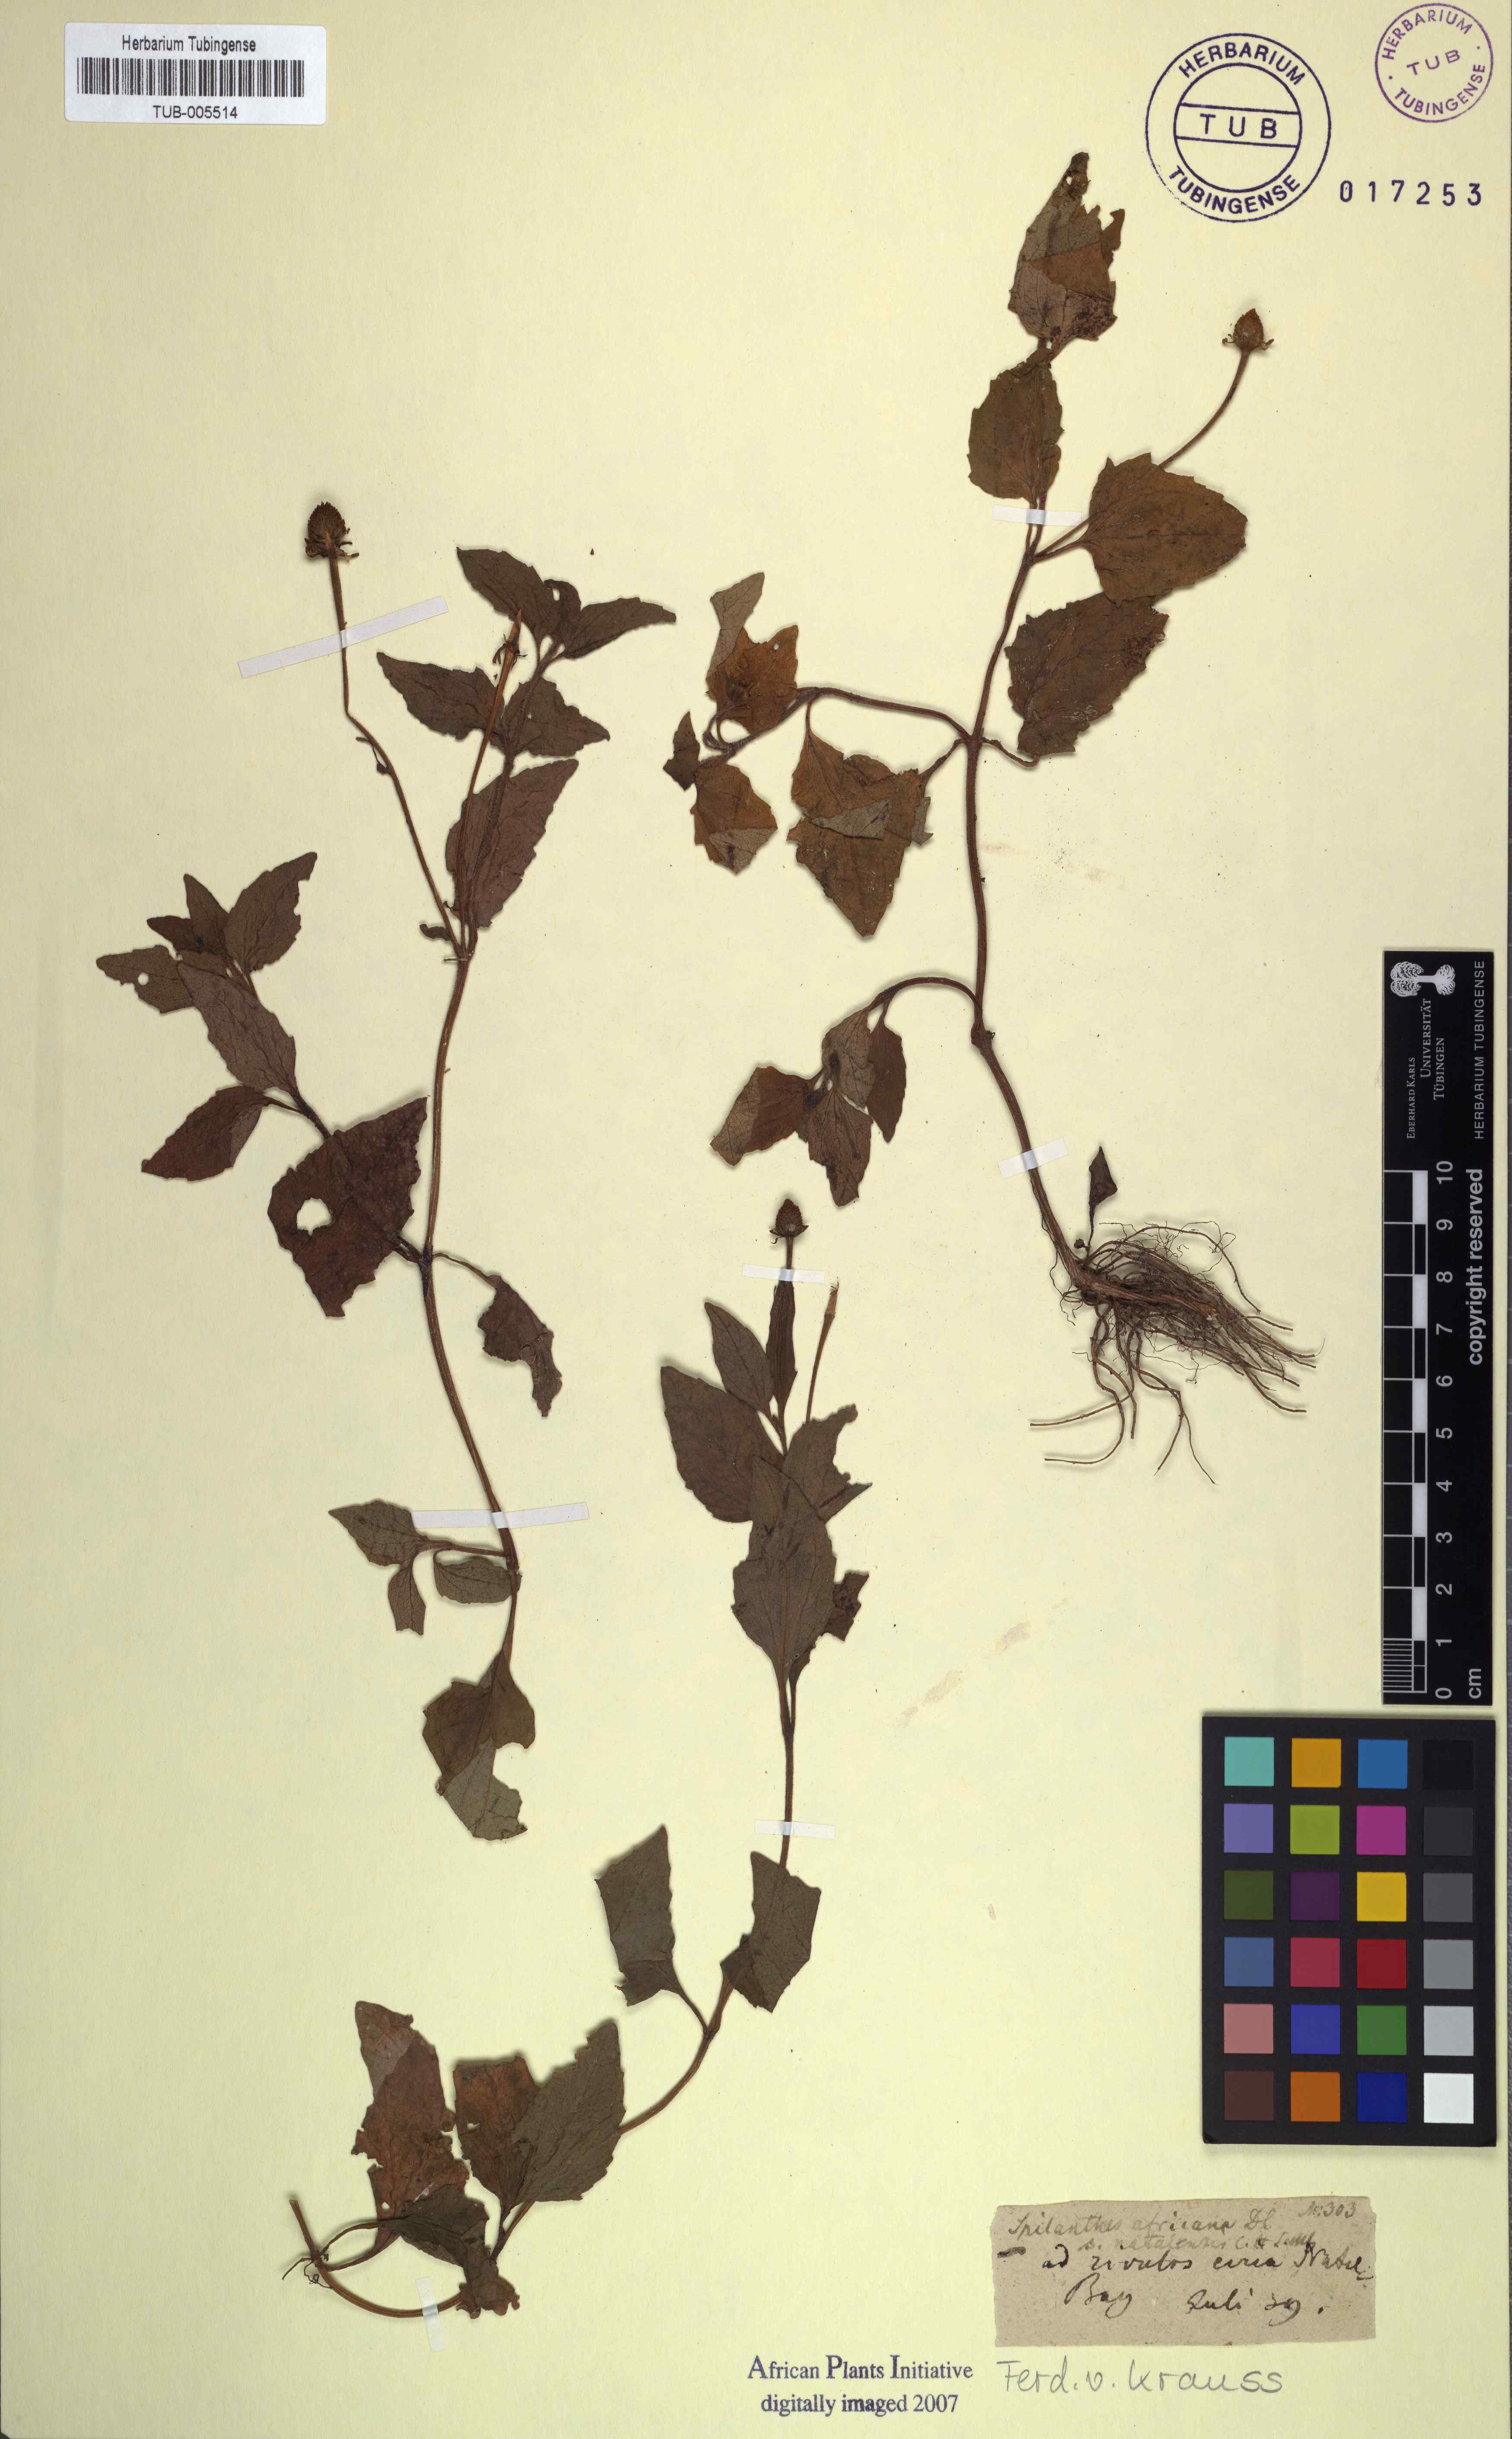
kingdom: Plantae
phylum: Tracheophyta
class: Magnoliopsida
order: Asterales
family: Asteraceae
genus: Blainvillea
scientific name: Blainvillea acmella
